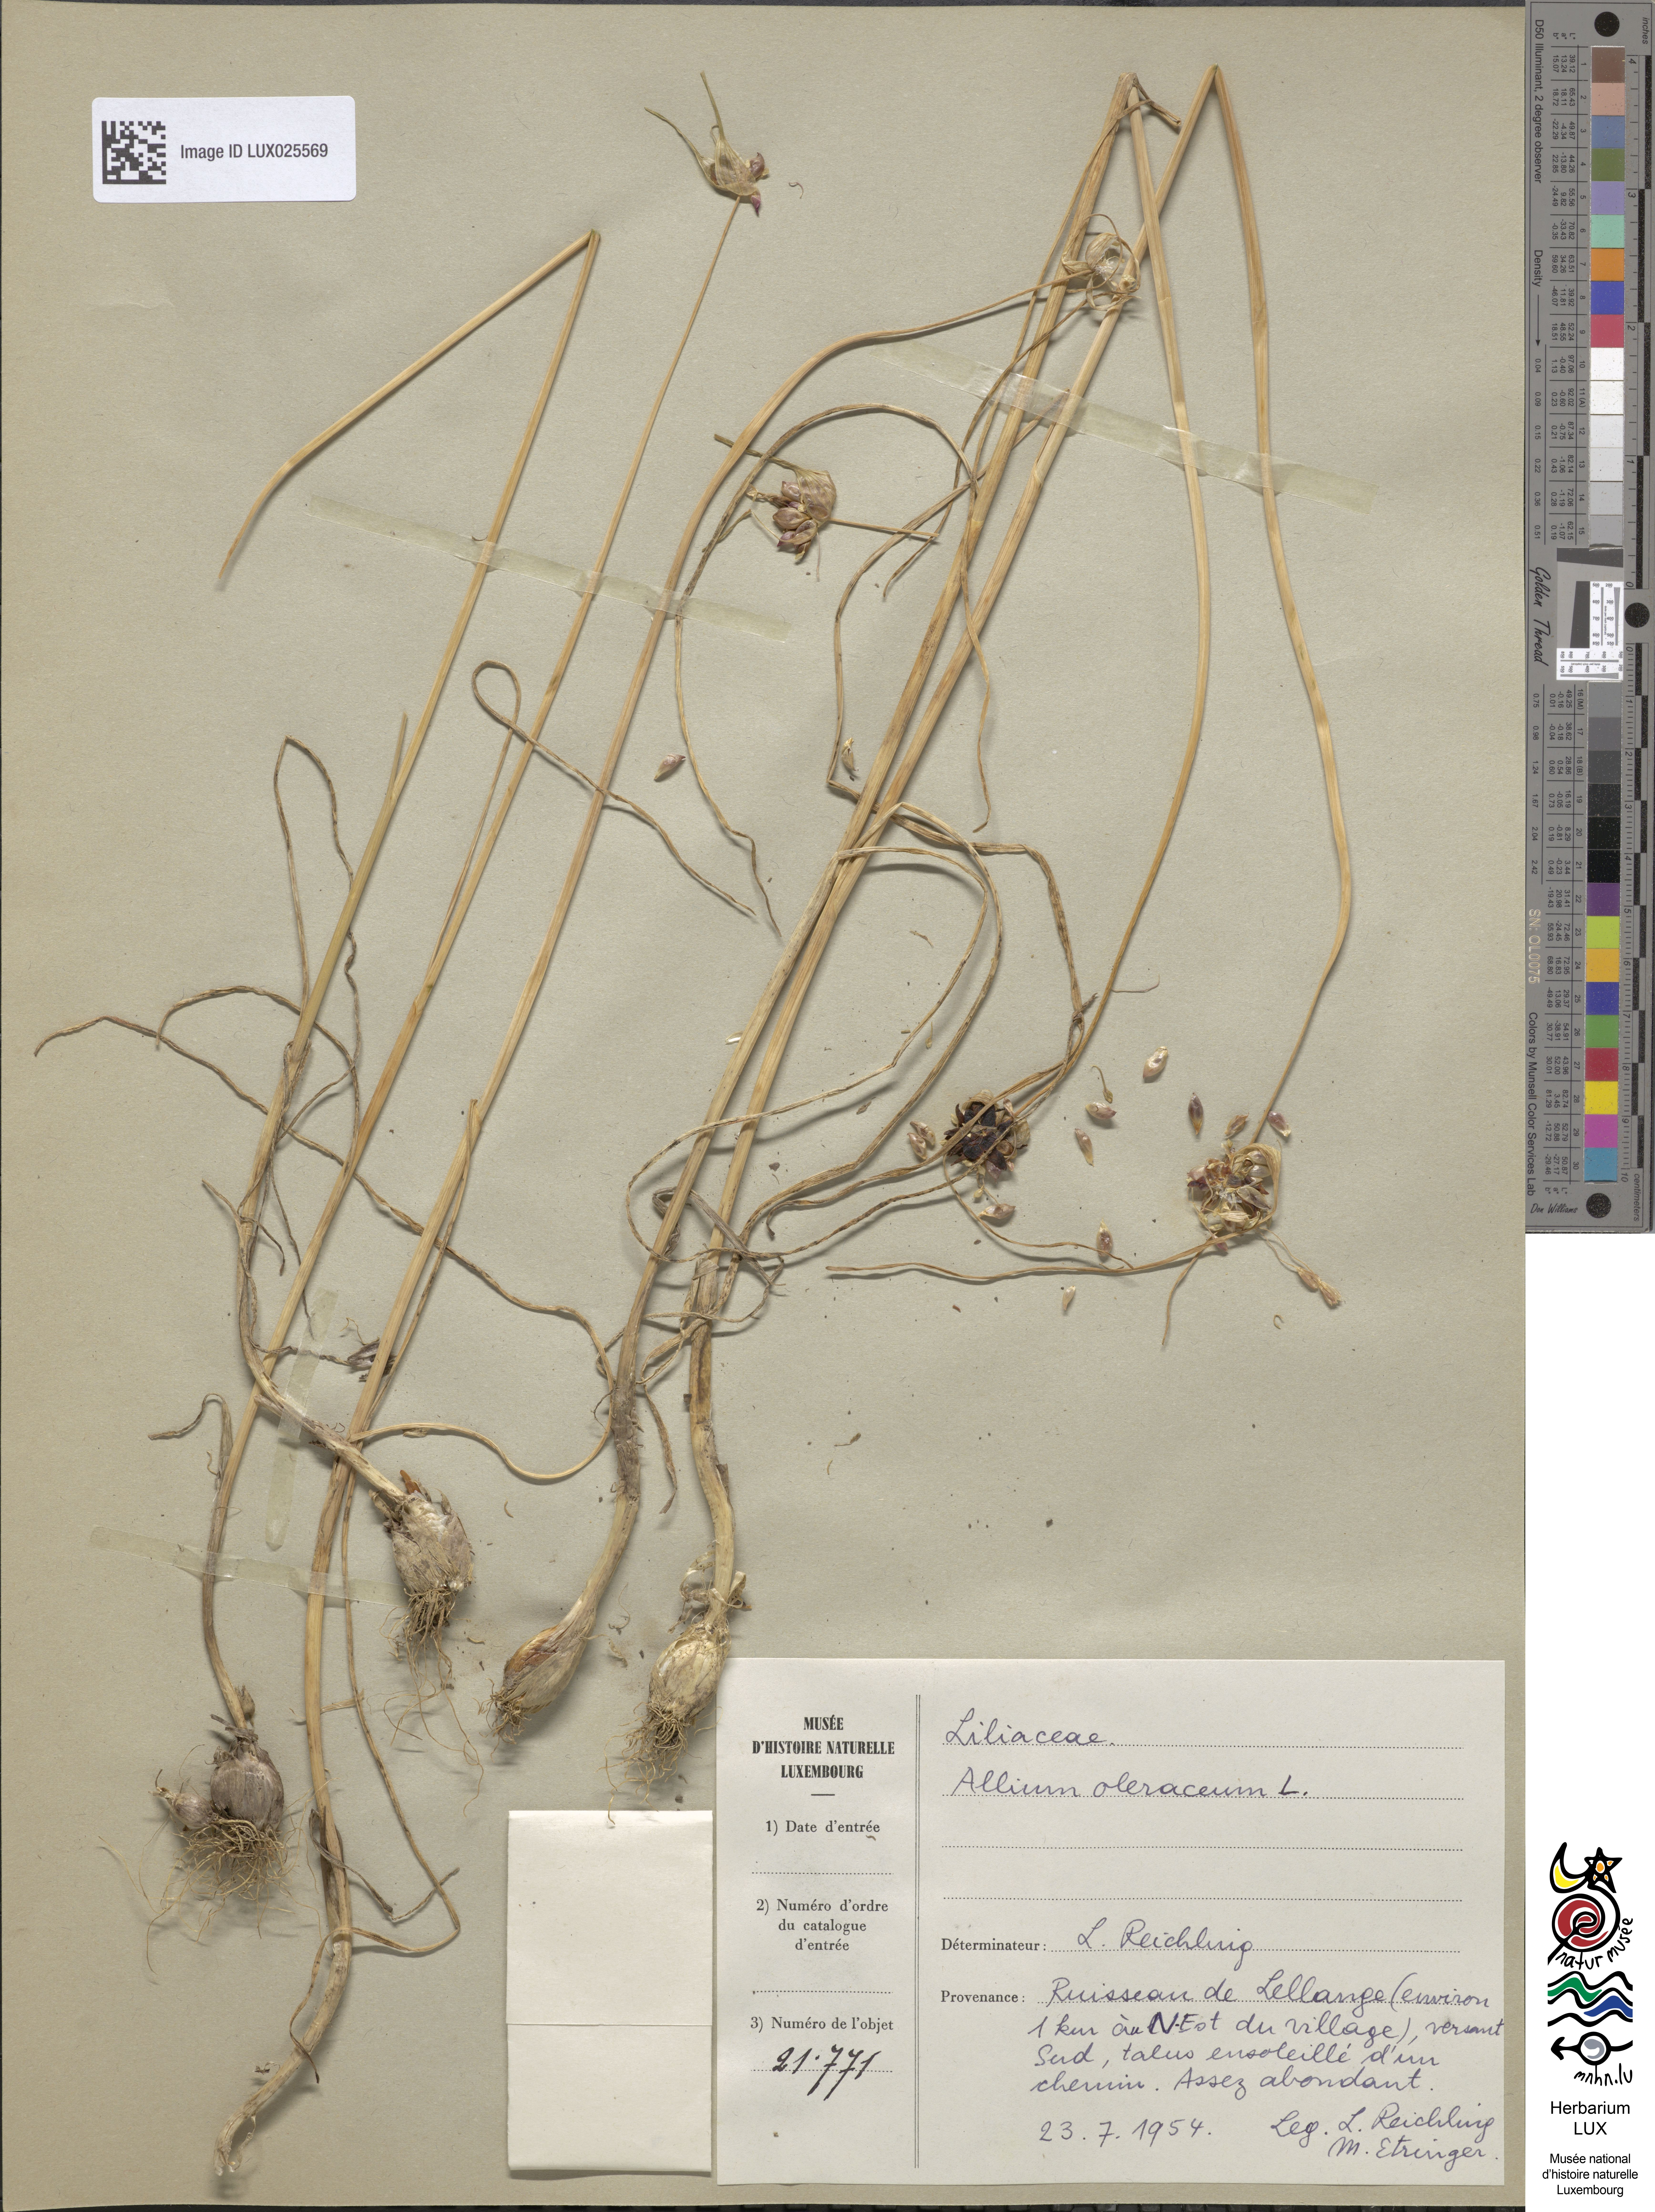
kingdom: Plantae
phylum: Tracheophyta
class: Liliopsida
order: Asparagales
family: Amaryllidaceae
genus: Allium
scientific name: Allium oleraceum
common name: Field garlic
